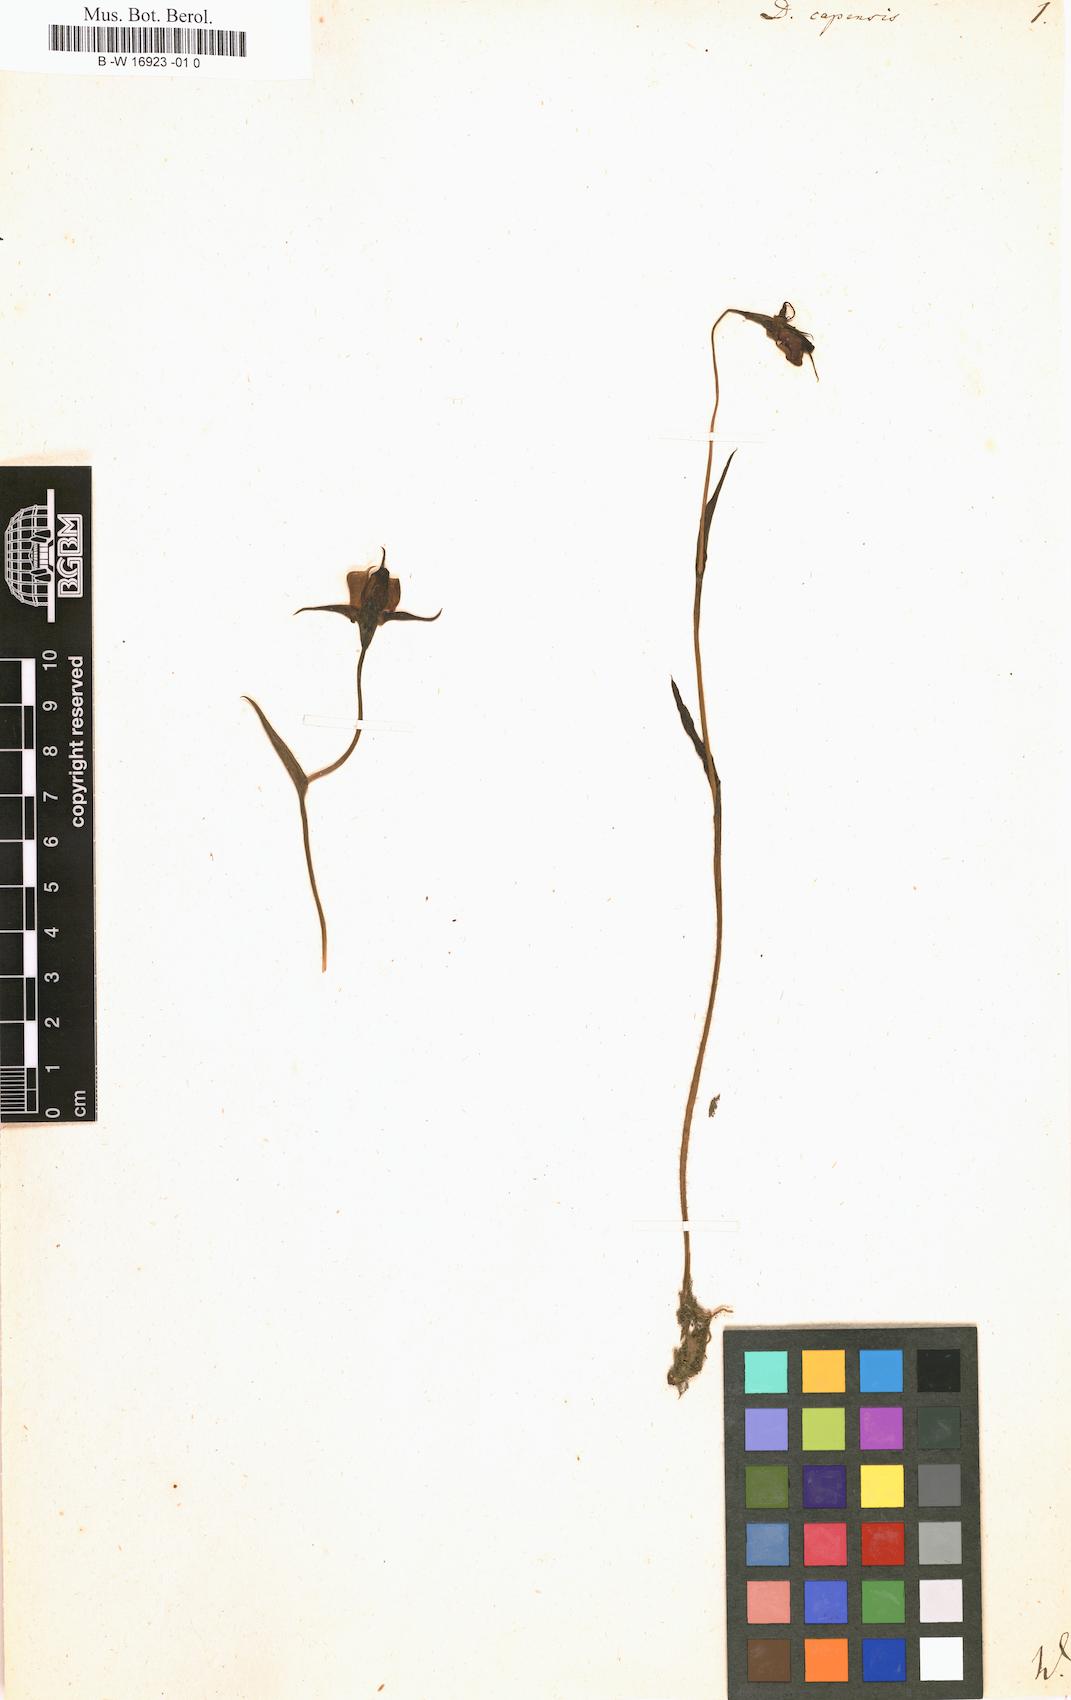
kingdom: Plantae
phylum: Tracheophyta
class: Liliopsida
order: Asparagales
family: Orchidaceae
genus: Disperis
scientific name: Disperis capensis
